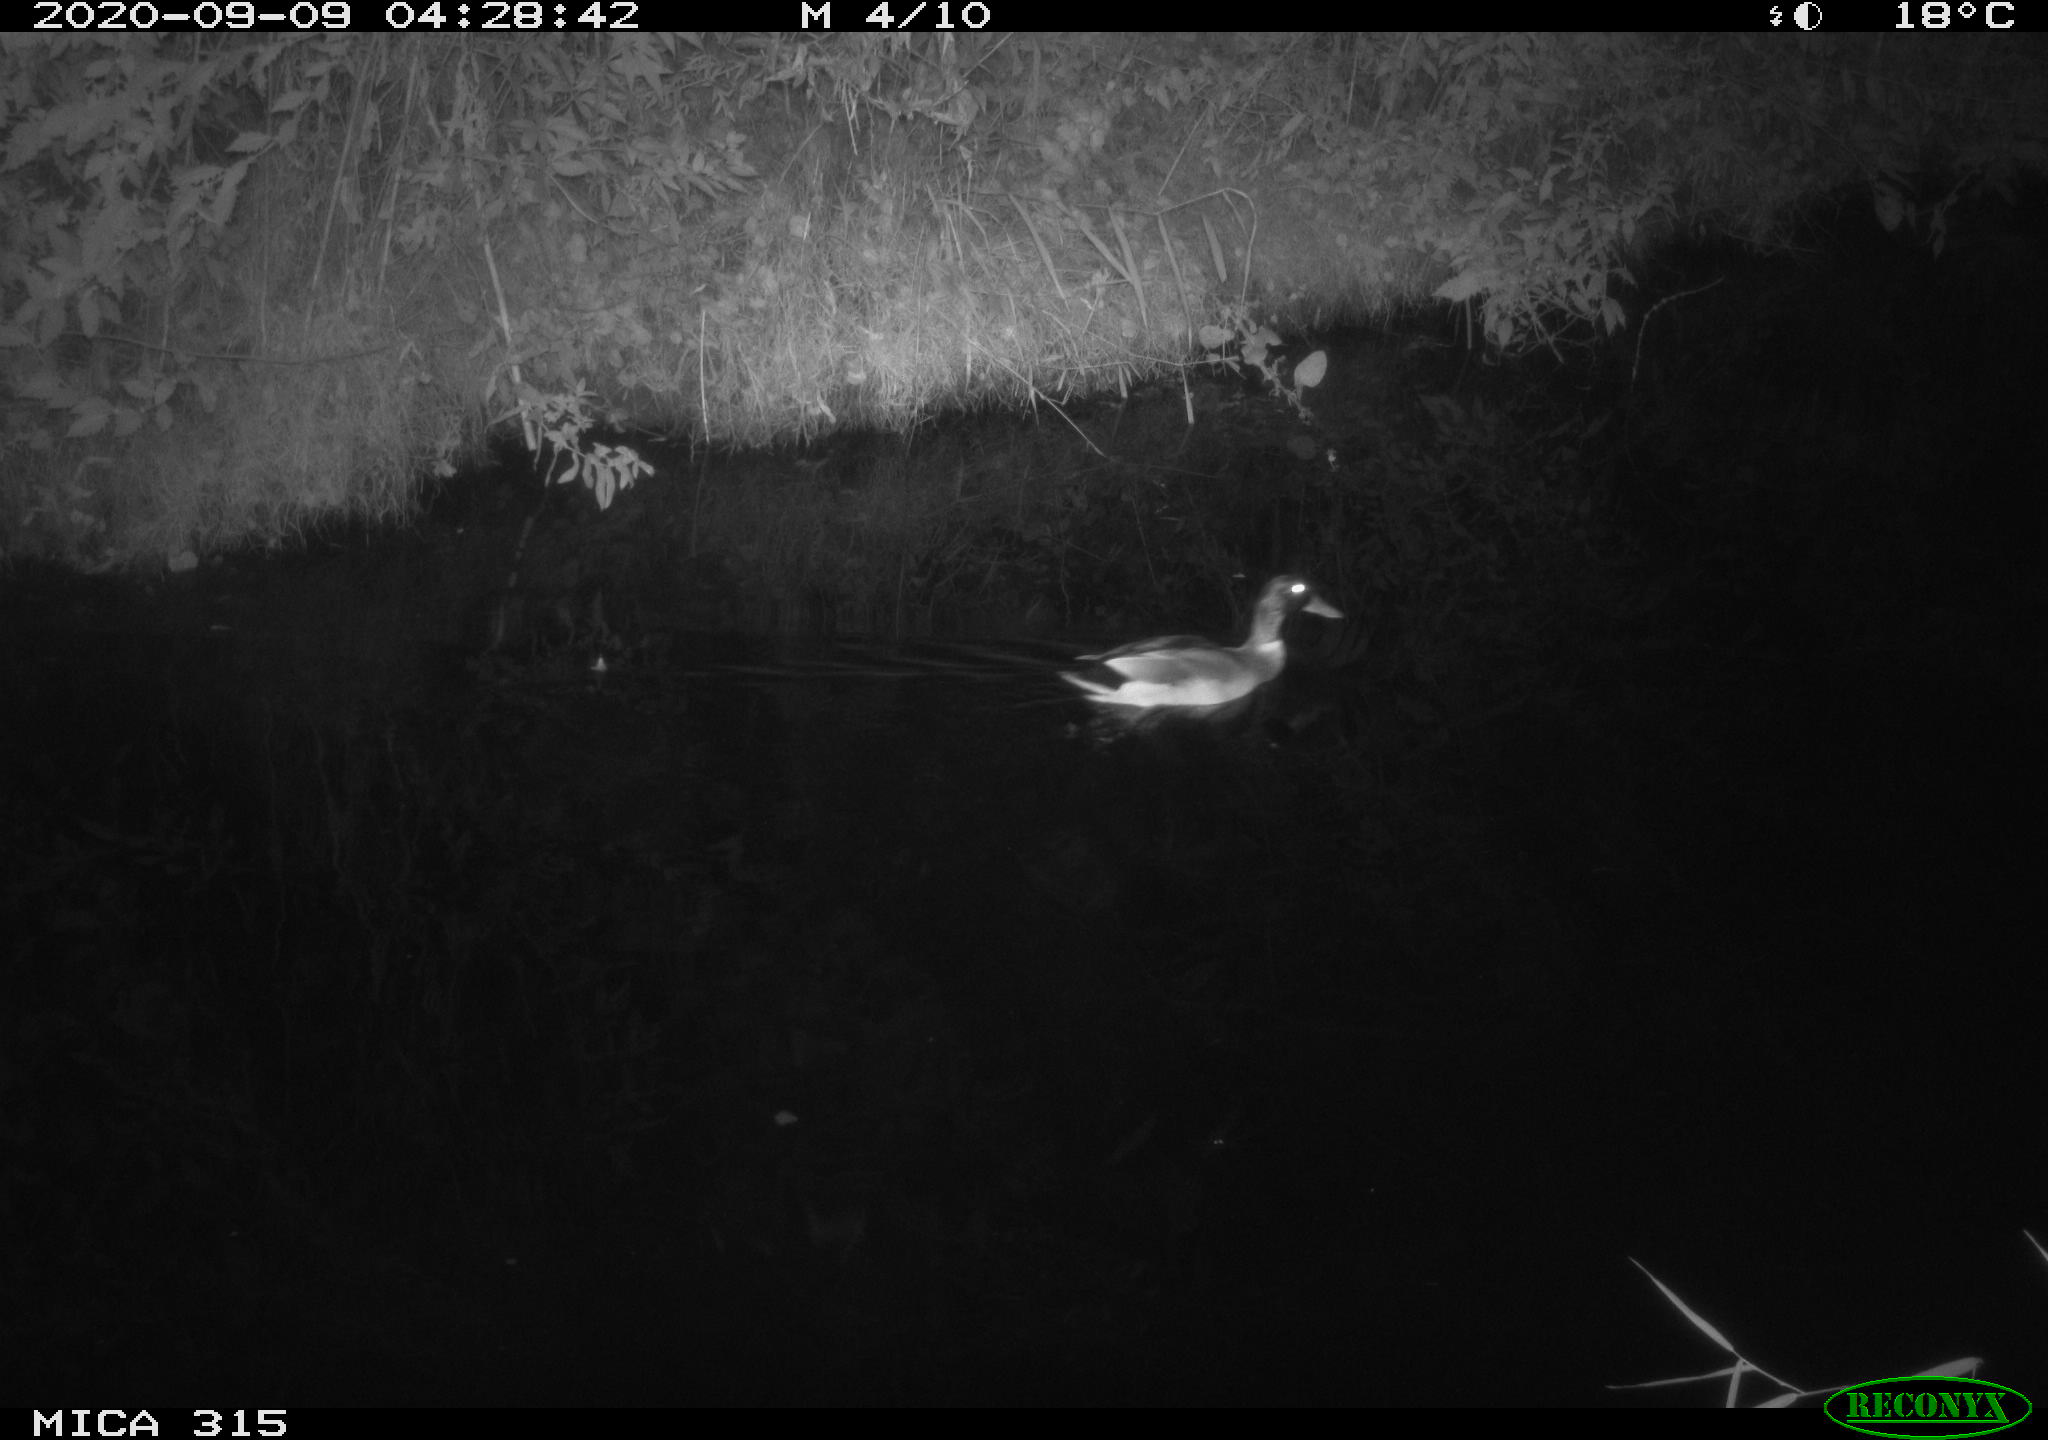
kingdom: Animalia
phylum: Chordata
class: Aves
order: Anseriformes
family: Anatidae
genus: Anas
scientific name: Anas platyrhynchos
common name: Mallard
